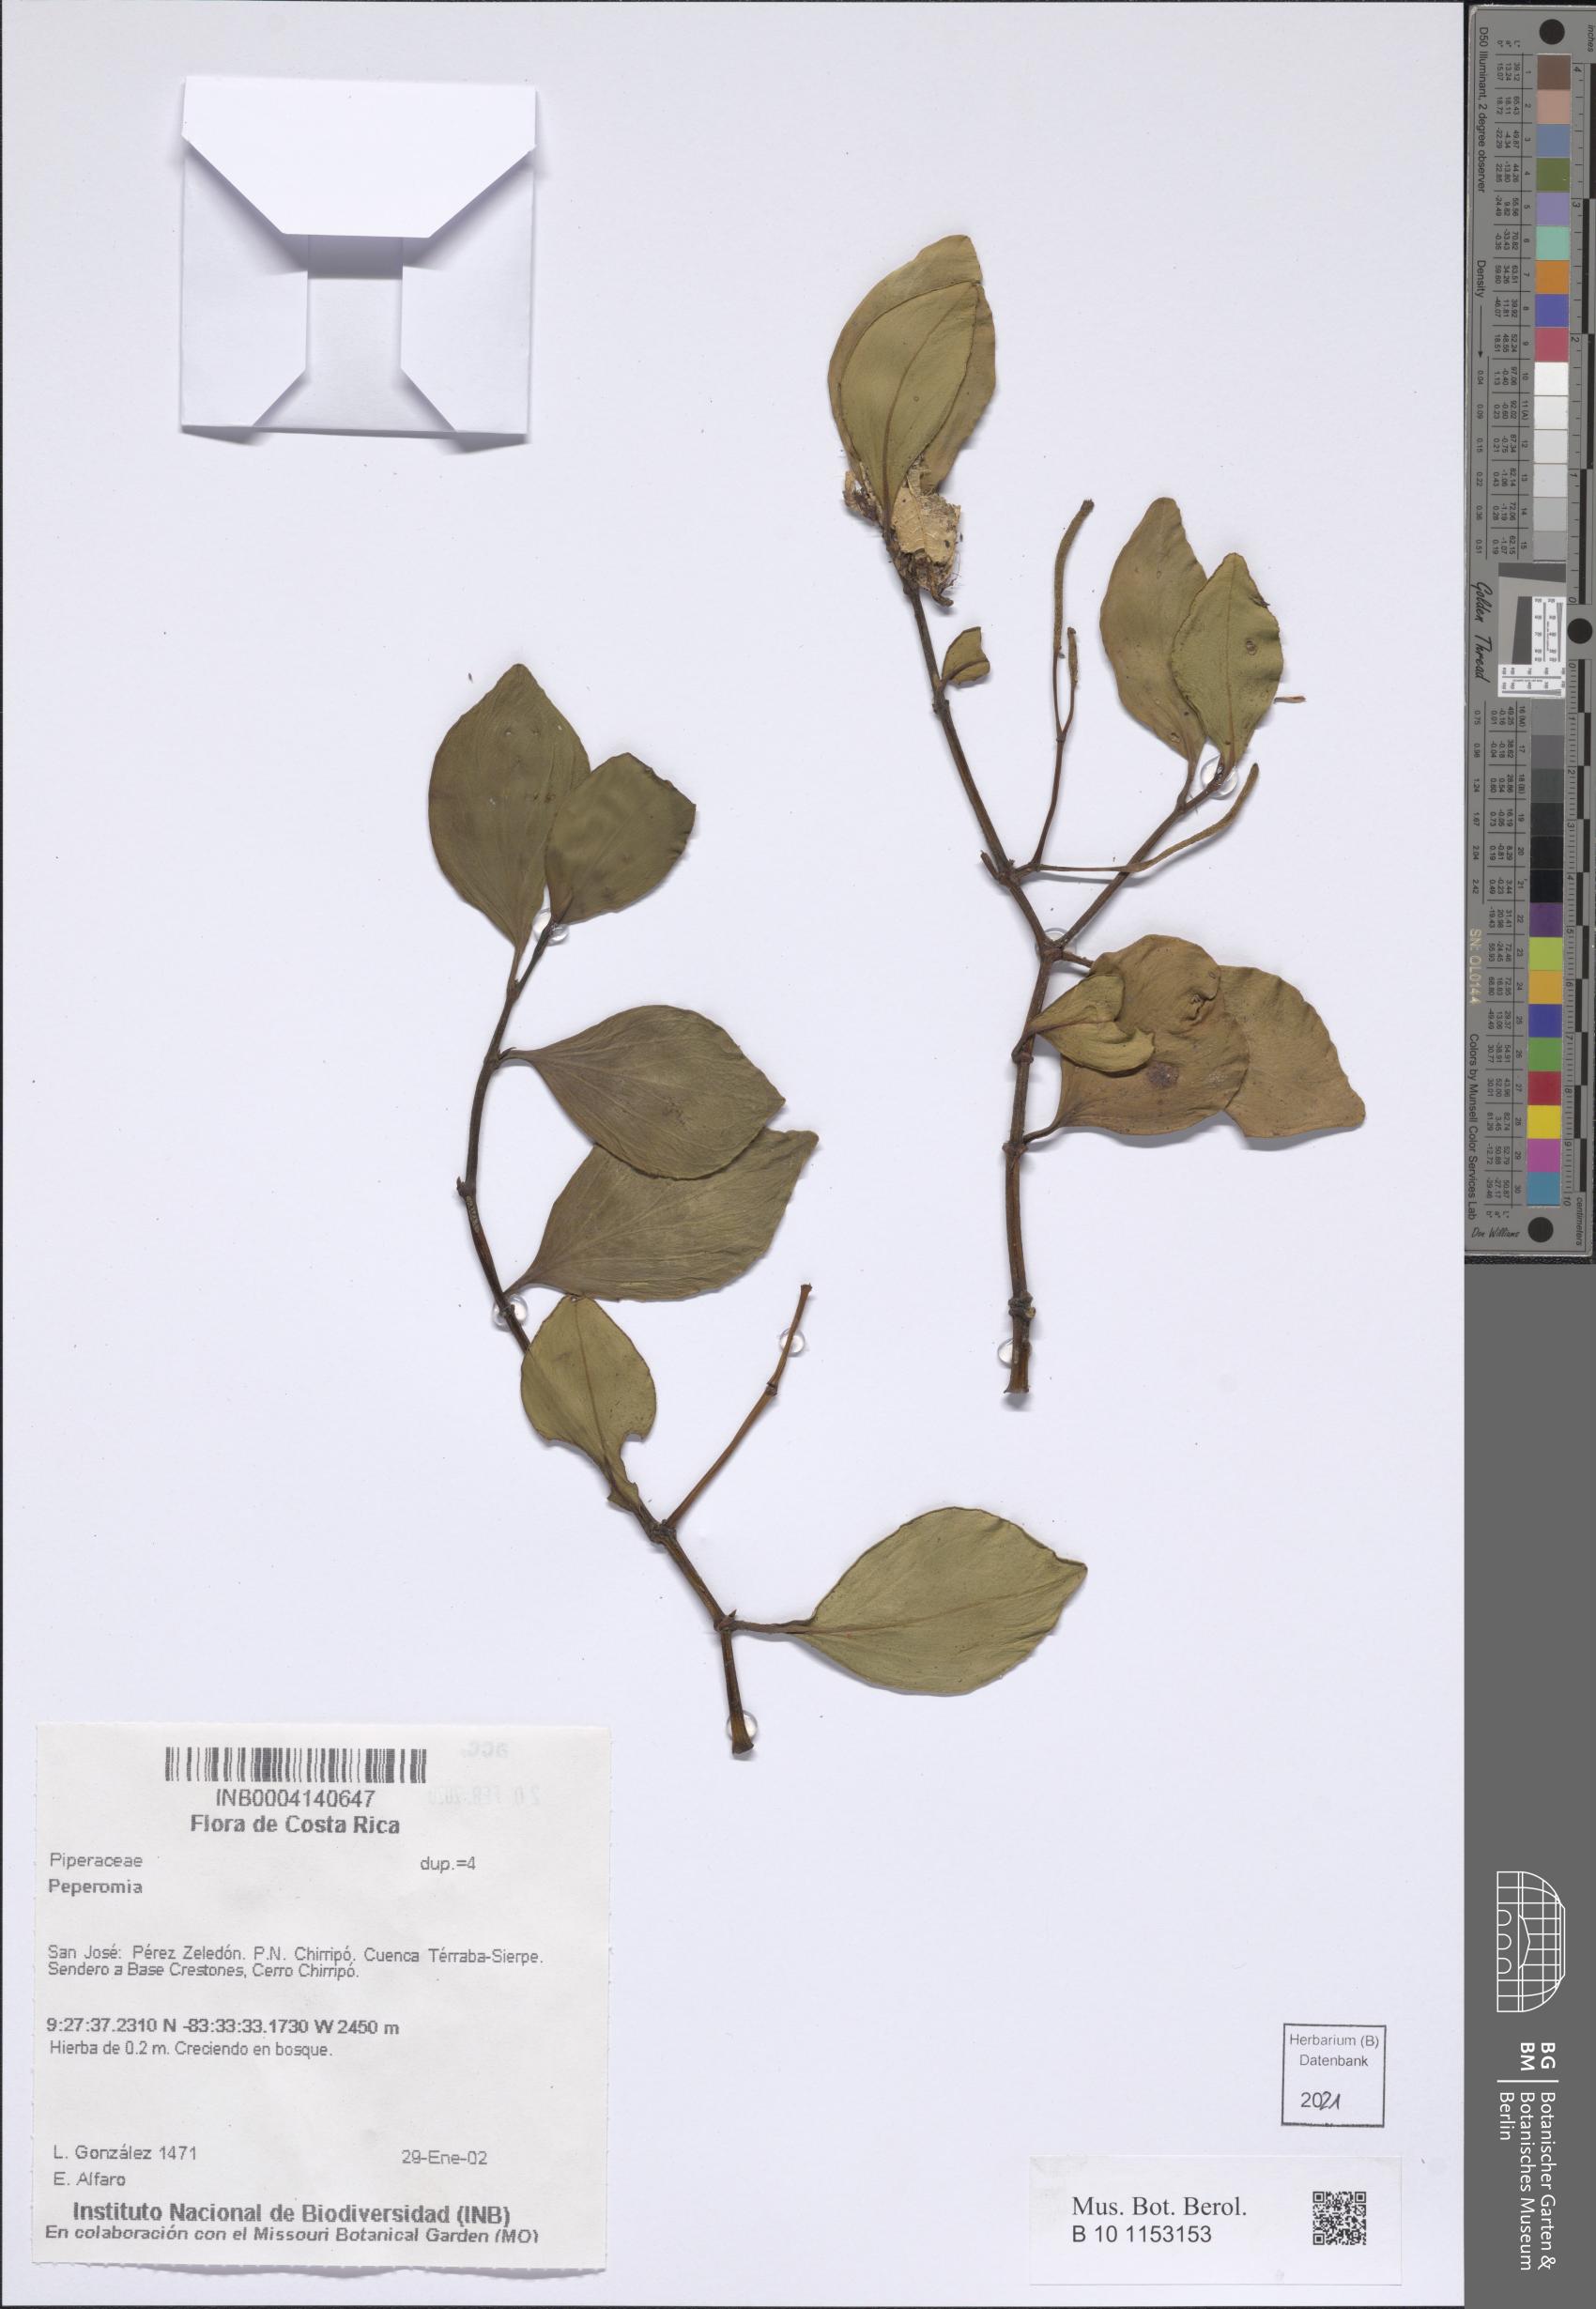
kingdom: Plantae
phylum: Tracheophyta
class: Magnoliopsida
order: Piperales
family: Piperaceae
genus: Peperomia
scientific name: Peperomia
